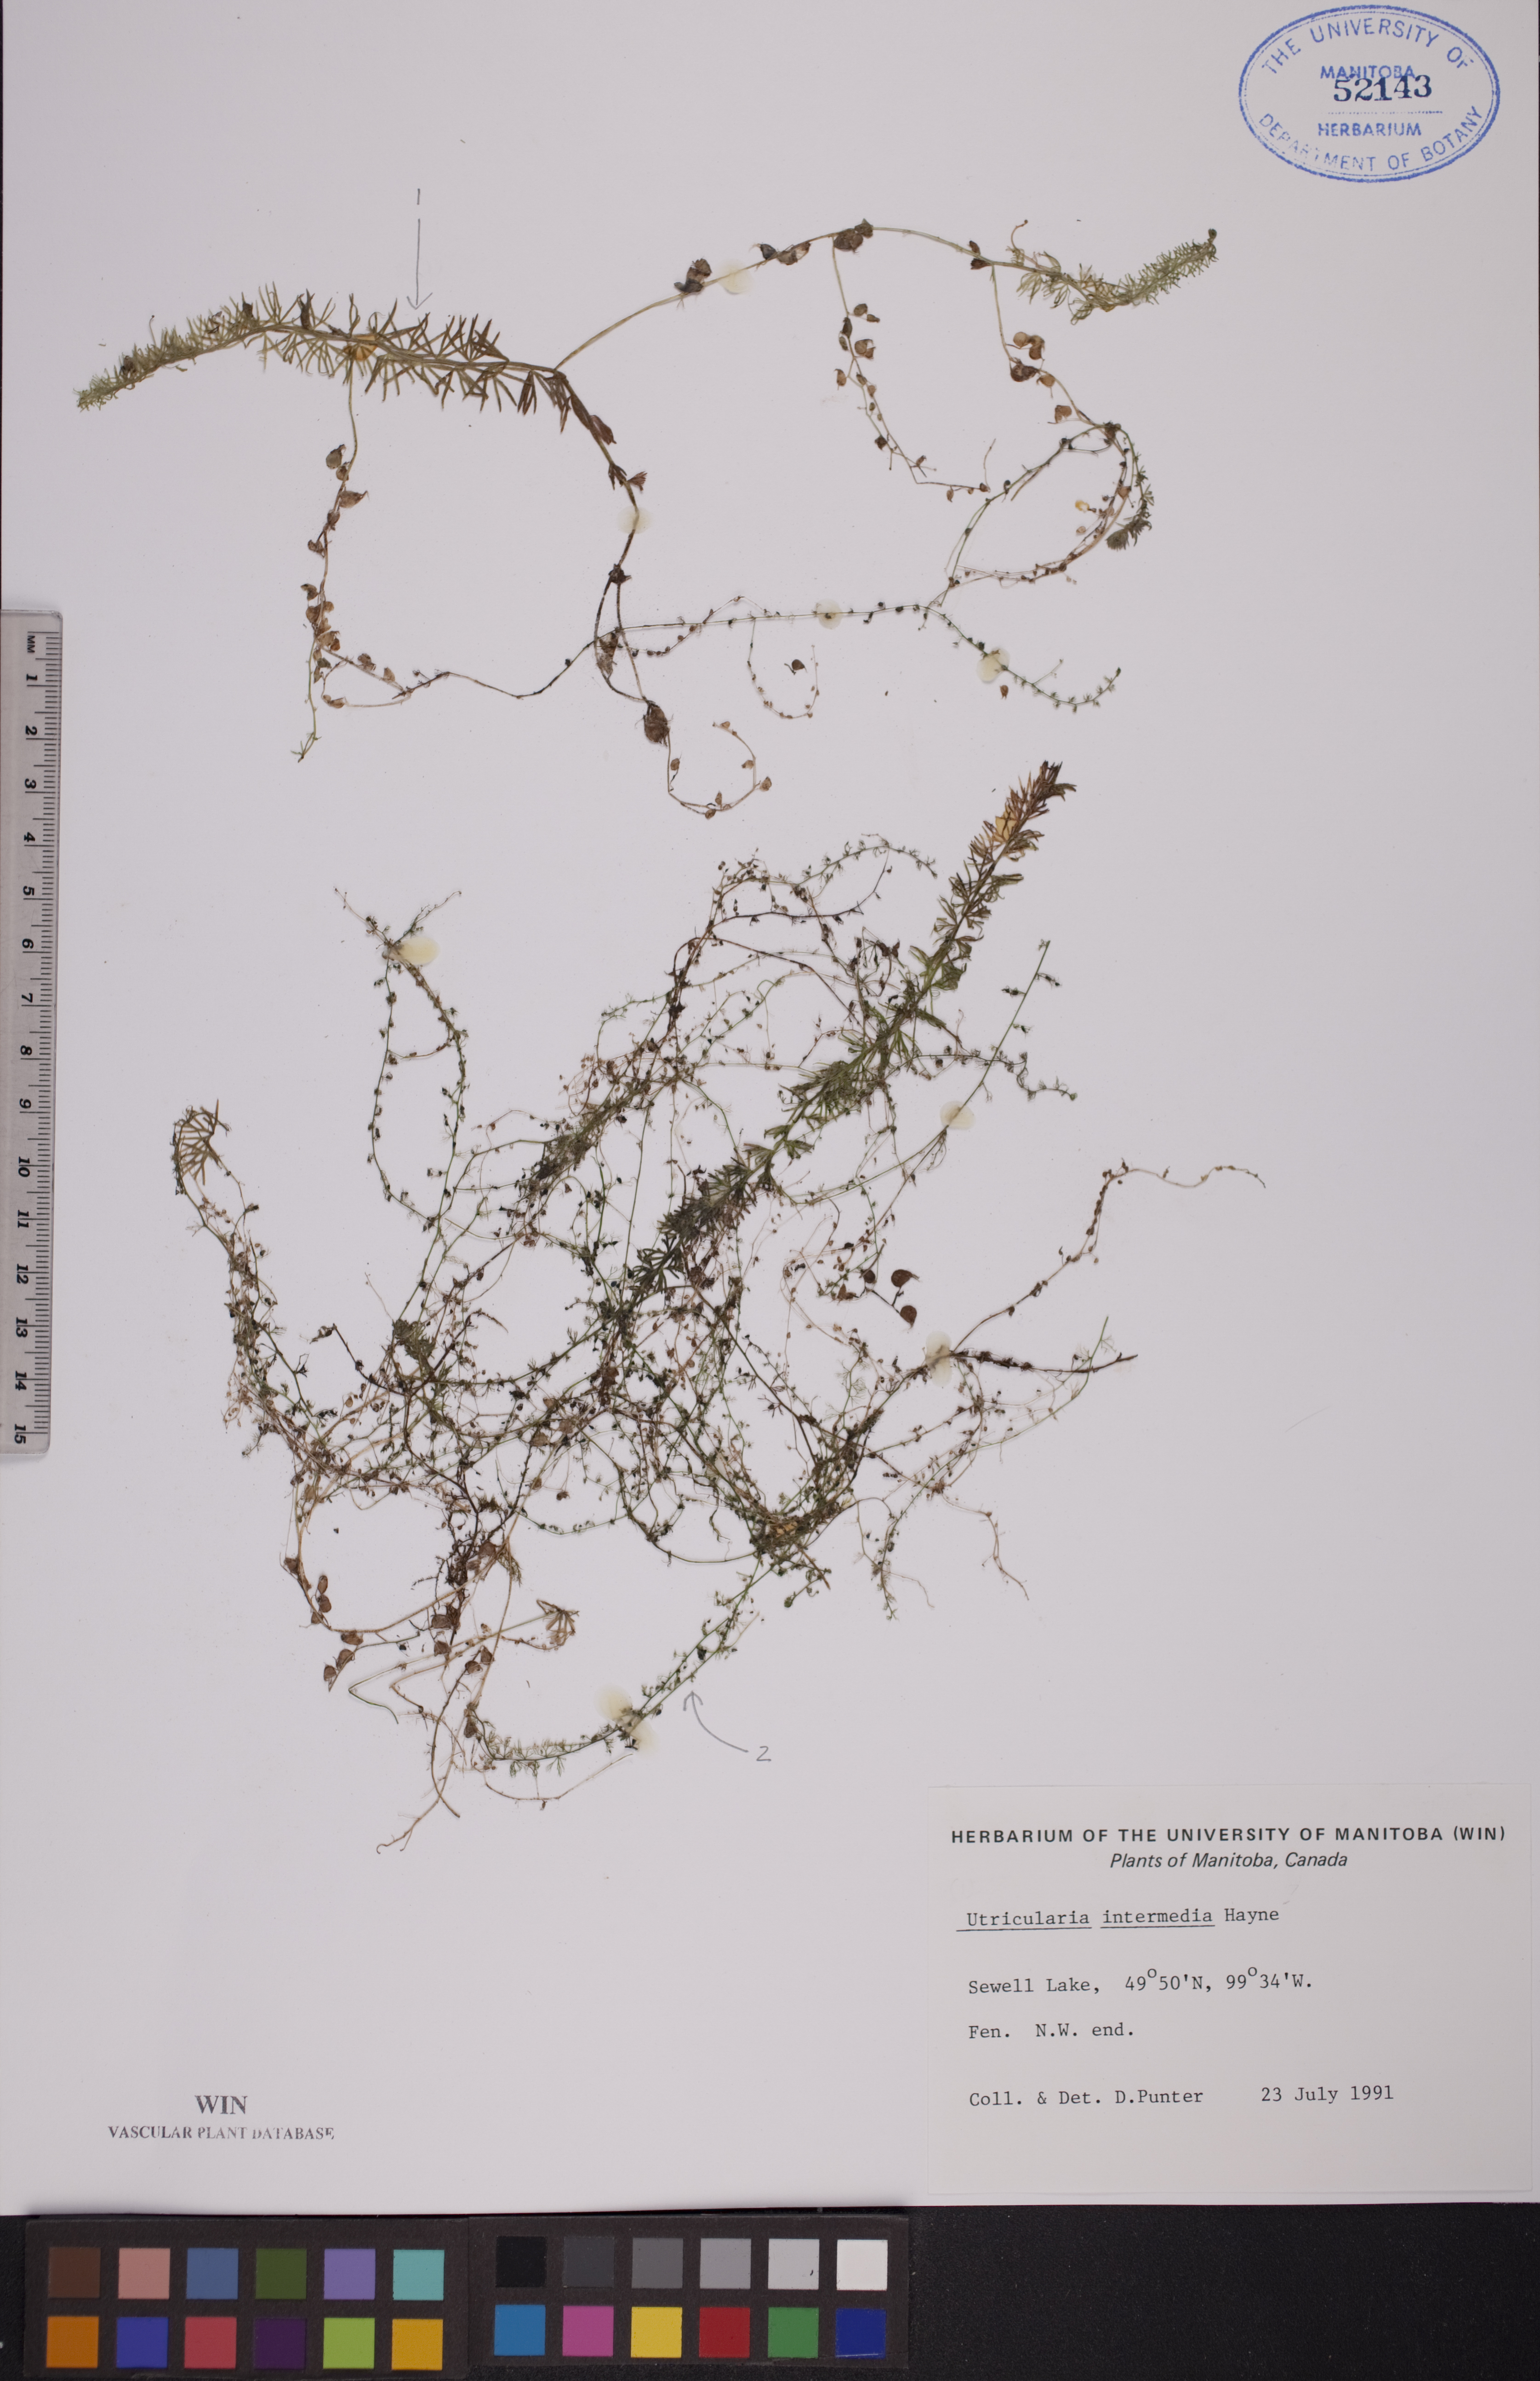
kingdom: Plantae
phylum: Tracheophyta
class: Magnoliopsida
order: Lamiales
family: Lentibulariaceae
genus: Utricularia
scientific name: Utricularia intermedia
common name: Intermediate bladderwort
